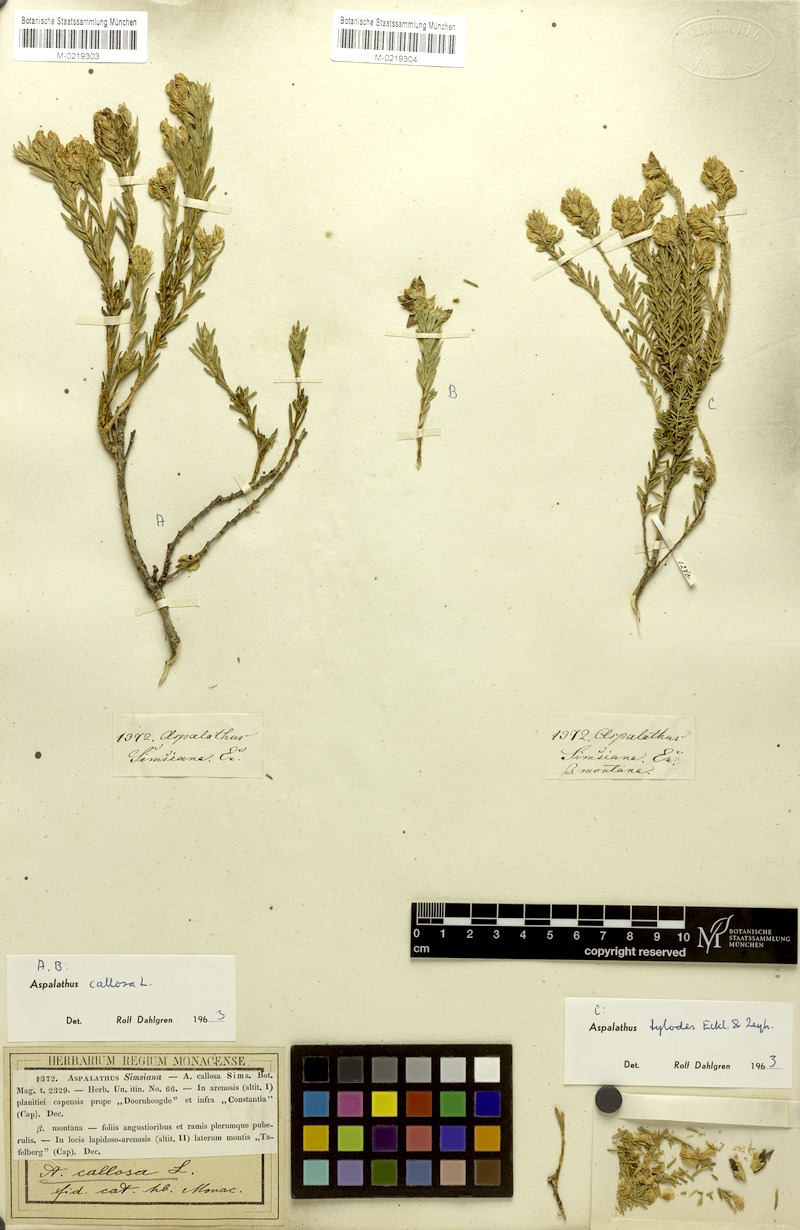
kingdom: Plantae
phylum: Tracheophyta
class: Magnoliopsida
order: Fabales
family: Fabaceae
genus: Aspalathus
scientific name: Aspalathus callosa
